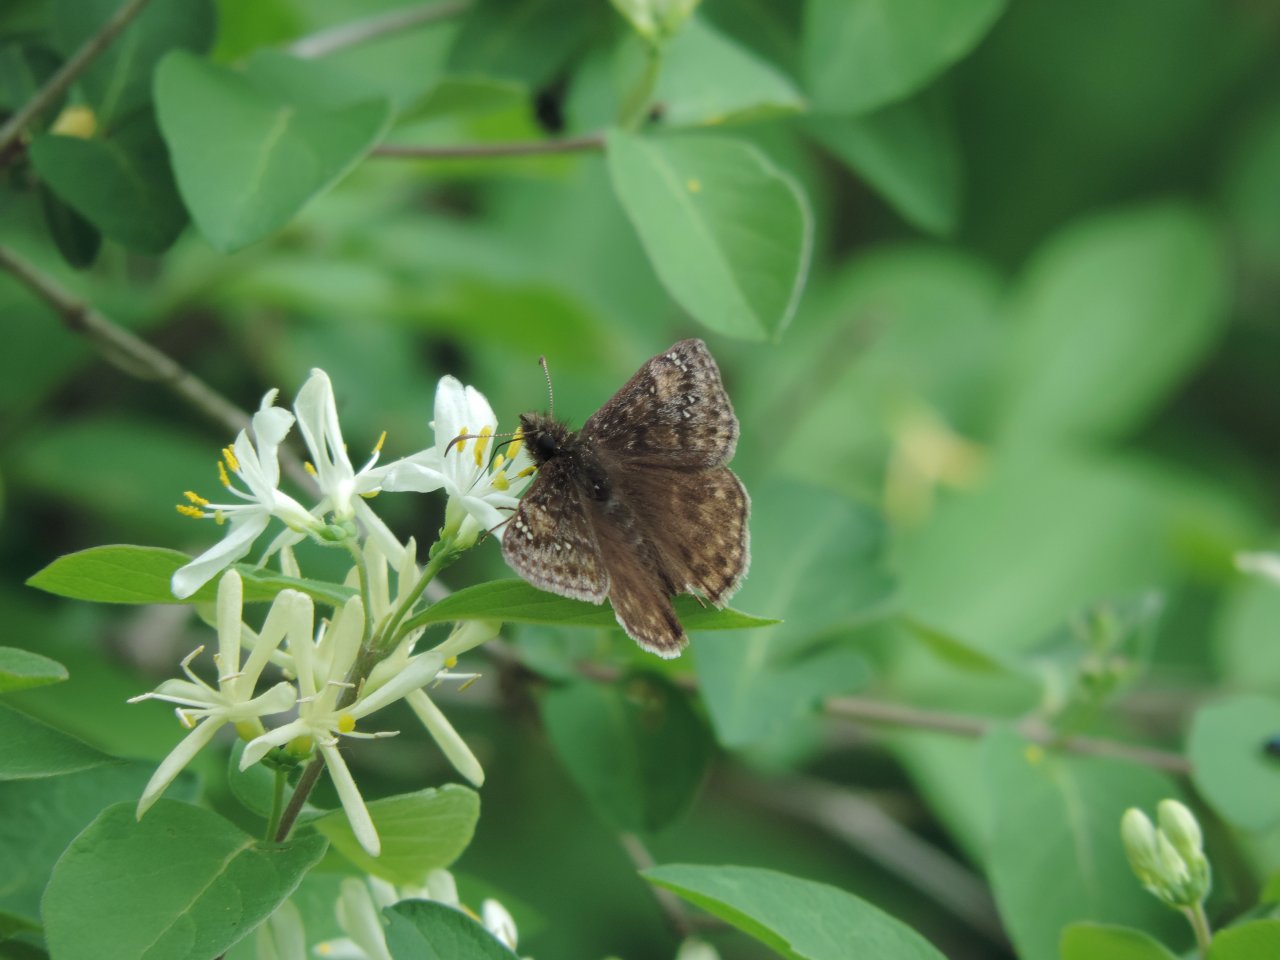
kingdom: Animalia
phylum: Arthropoda
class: Insecta
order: Lepidoptera
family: Hesperiidae
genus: Gesta
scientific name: Gesta
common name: Juvenal's Duskywing
